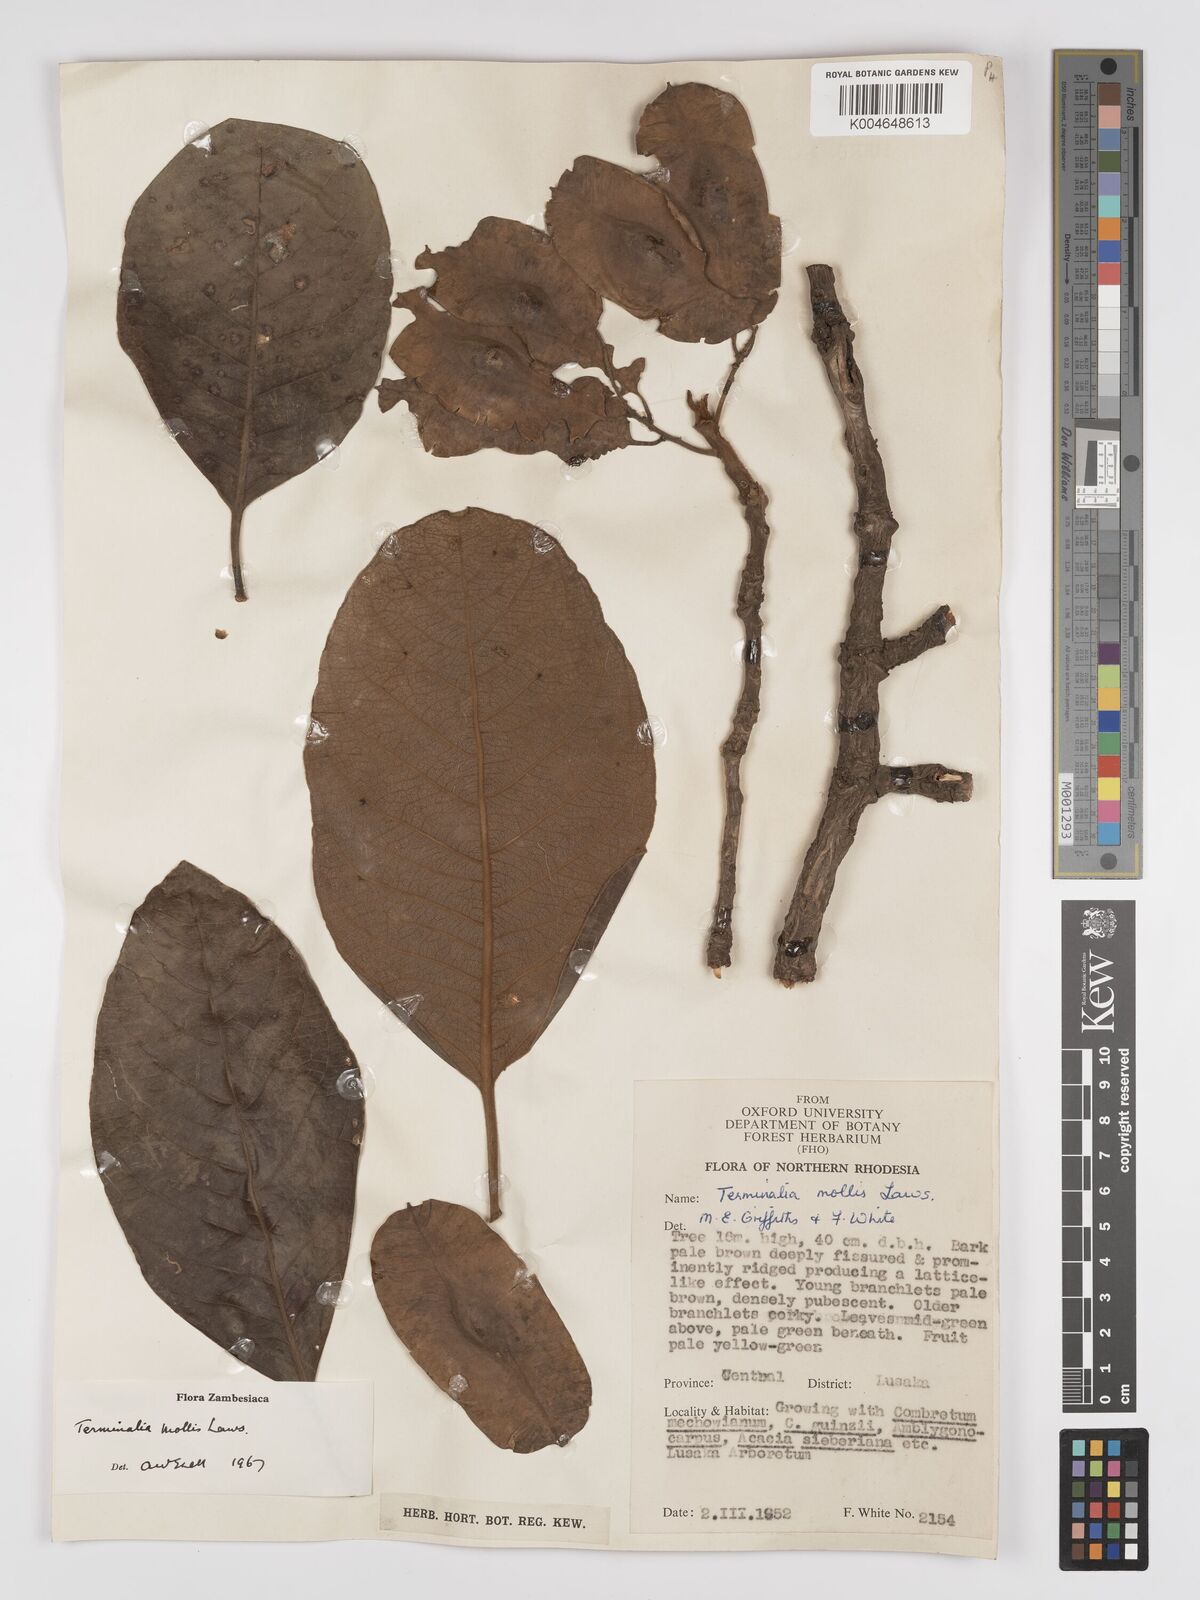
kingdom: Plantae
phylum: Tracheophyta
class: Magnoliopsida
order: Myrtales
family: Combretaceae
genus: Terminalia
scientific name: Terminalia
